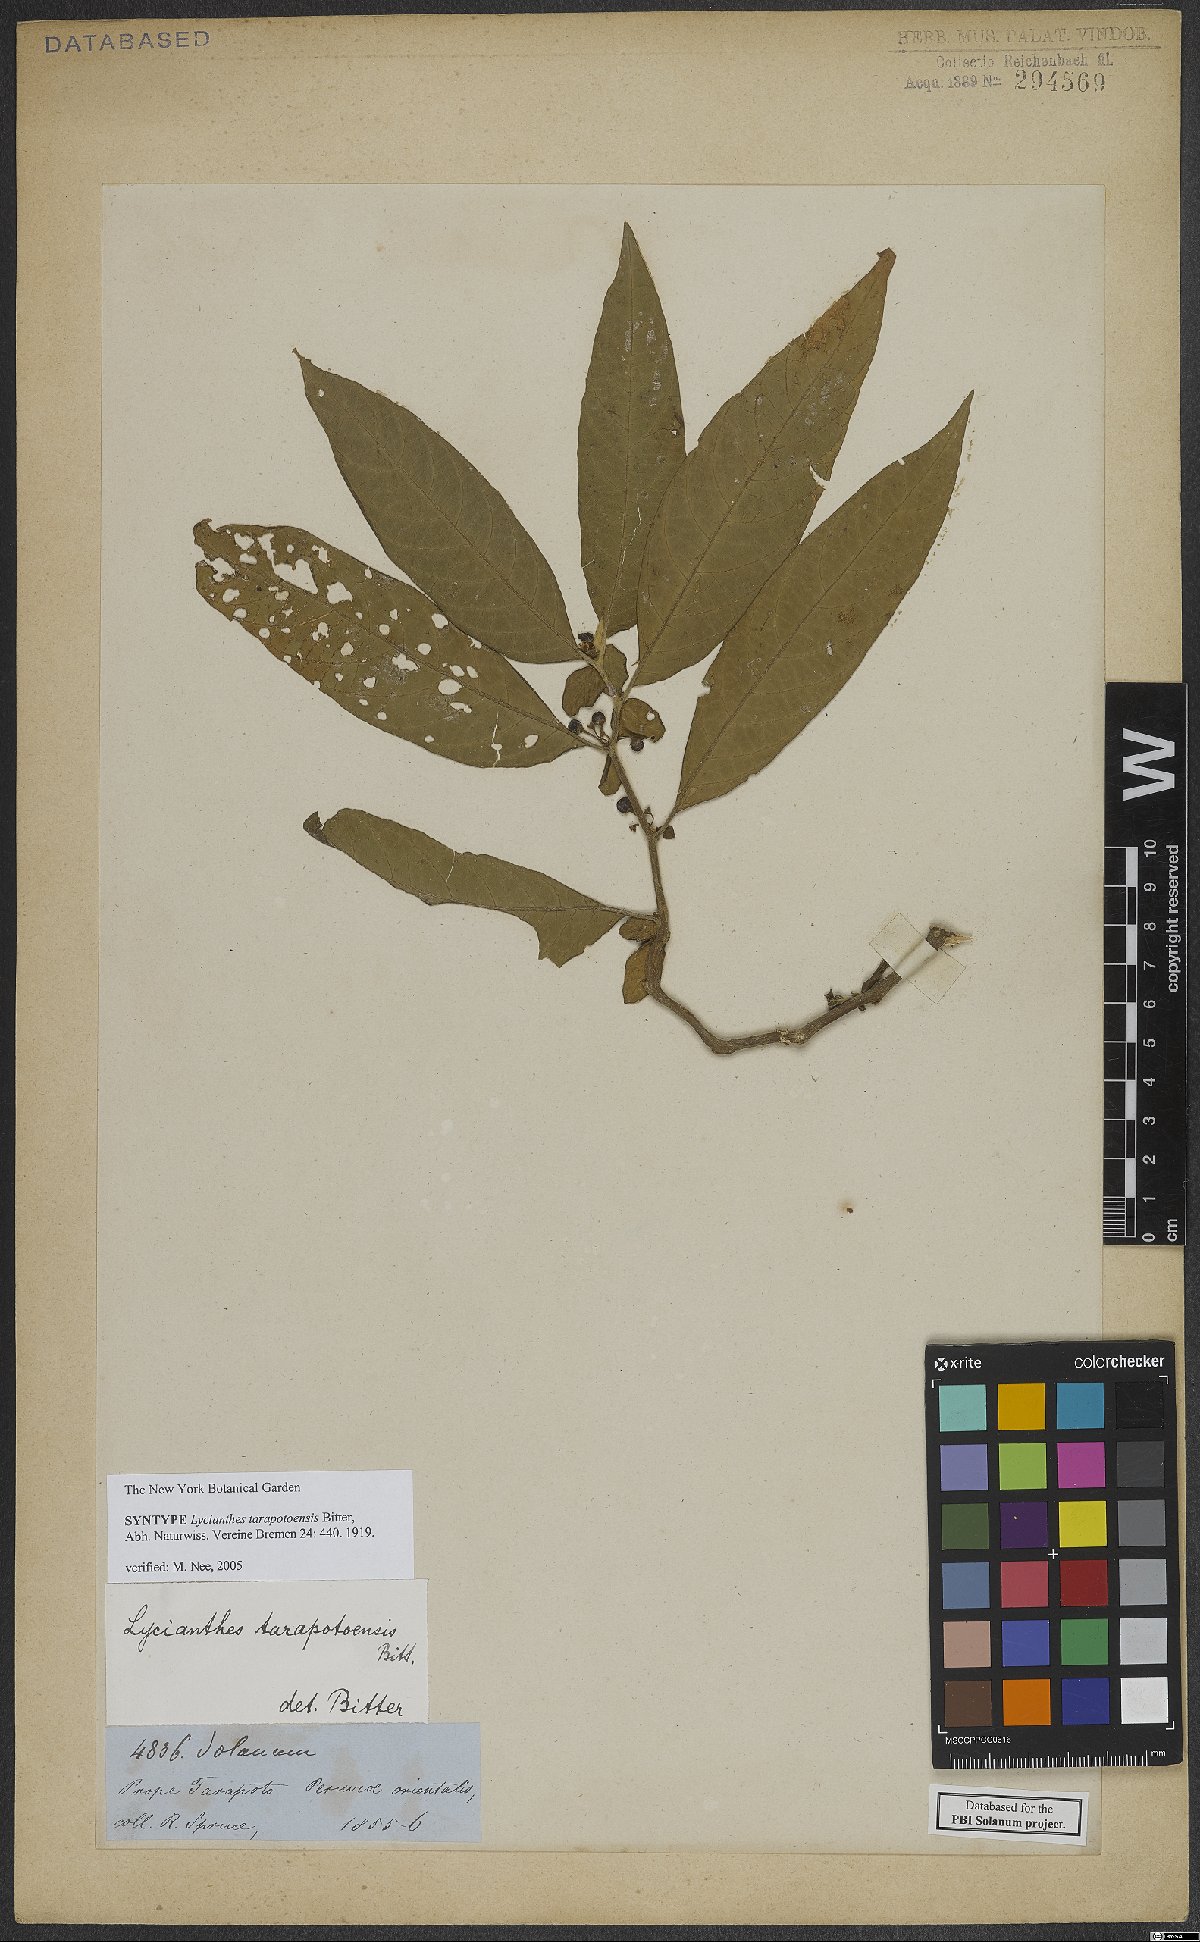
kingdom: Plantae
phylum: Tracheophyta
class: Magnoliopsida
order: Solanales
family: Solanaceae
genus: Lycianthes
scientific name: Lycianthes tarapotensis
